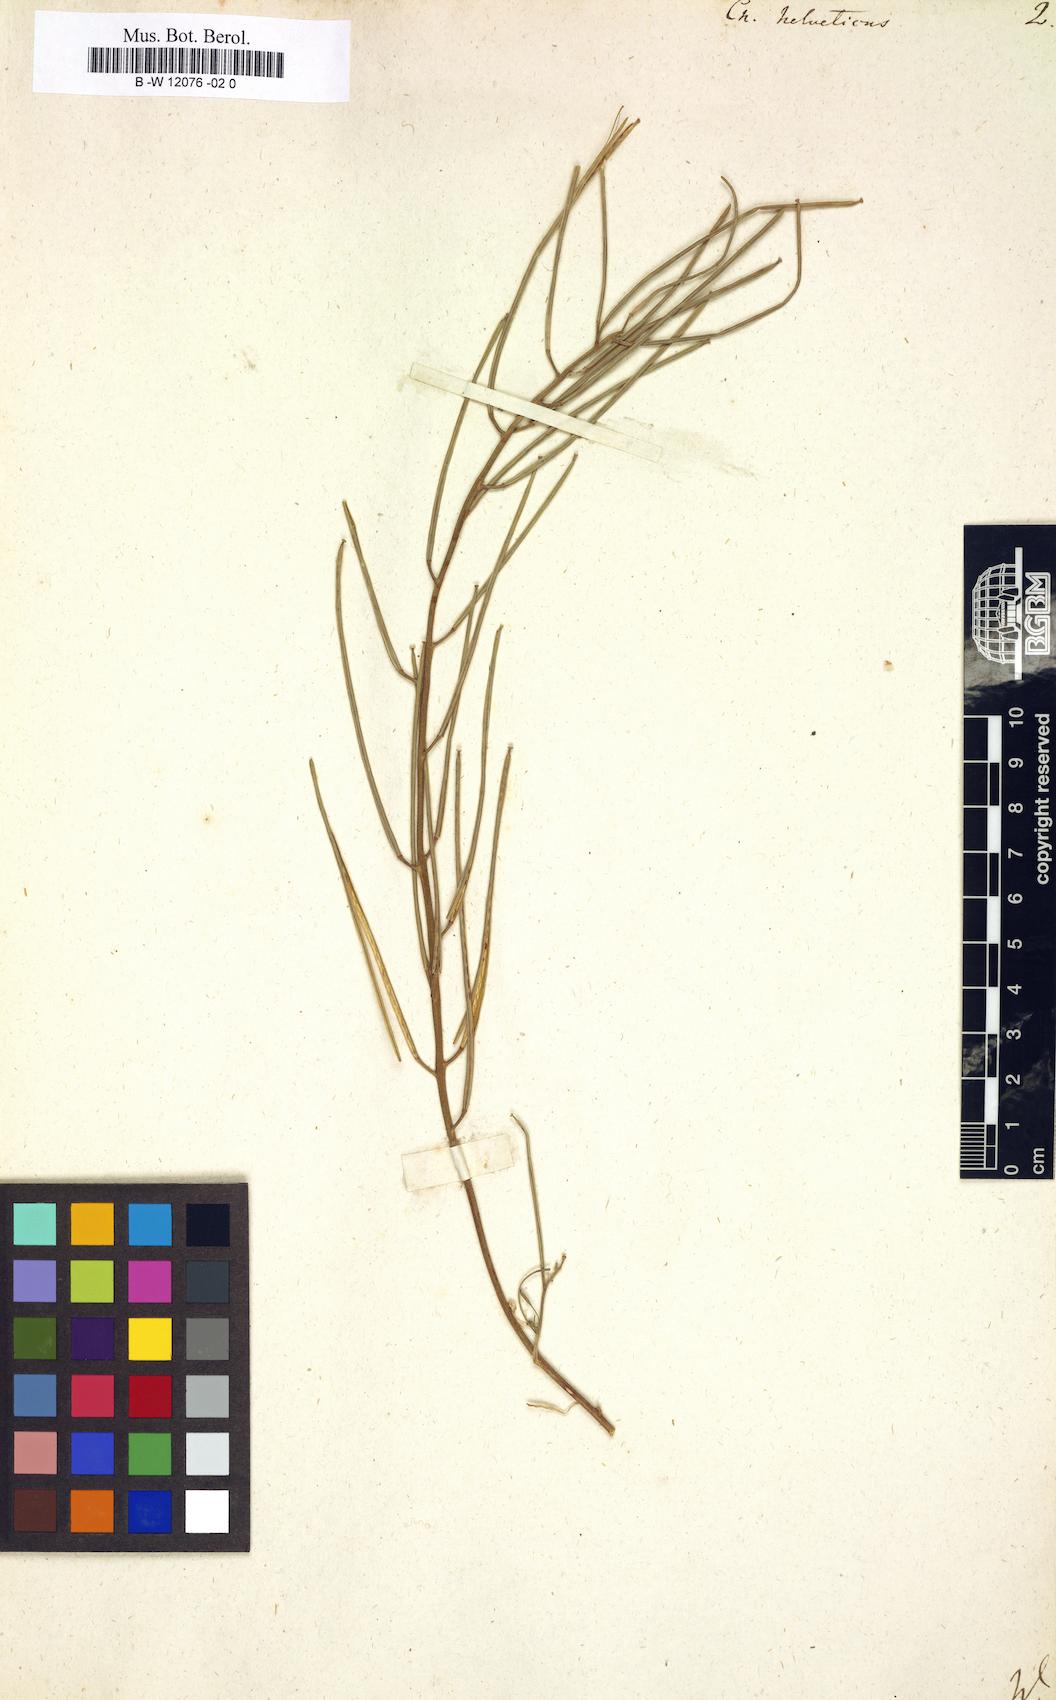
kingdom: Plantae
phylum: Tracheophyta
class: Magnoliopsida
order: Brassicales
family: Brassicaceae
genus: Erysimum
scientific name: Erysimum cheiri
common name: Wallflower
